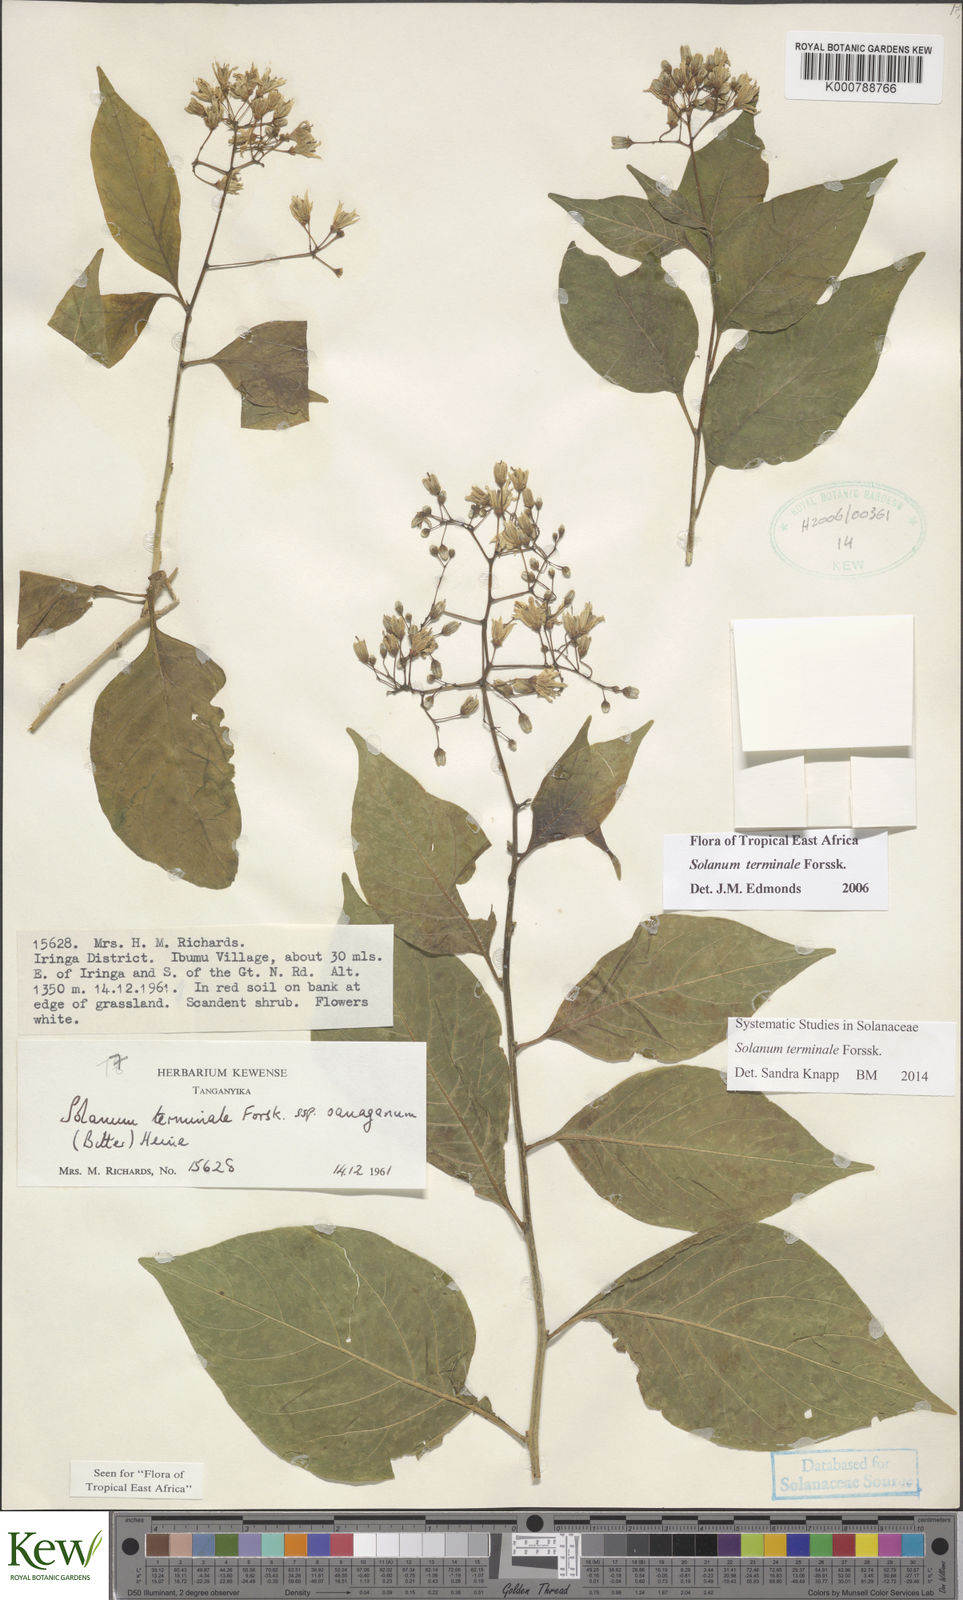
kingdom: Plantae
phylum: Tracheophyta
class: Magnoliopsida
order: Solanales
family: Solanaceae
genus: Solanum
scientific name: Solanum terminale
